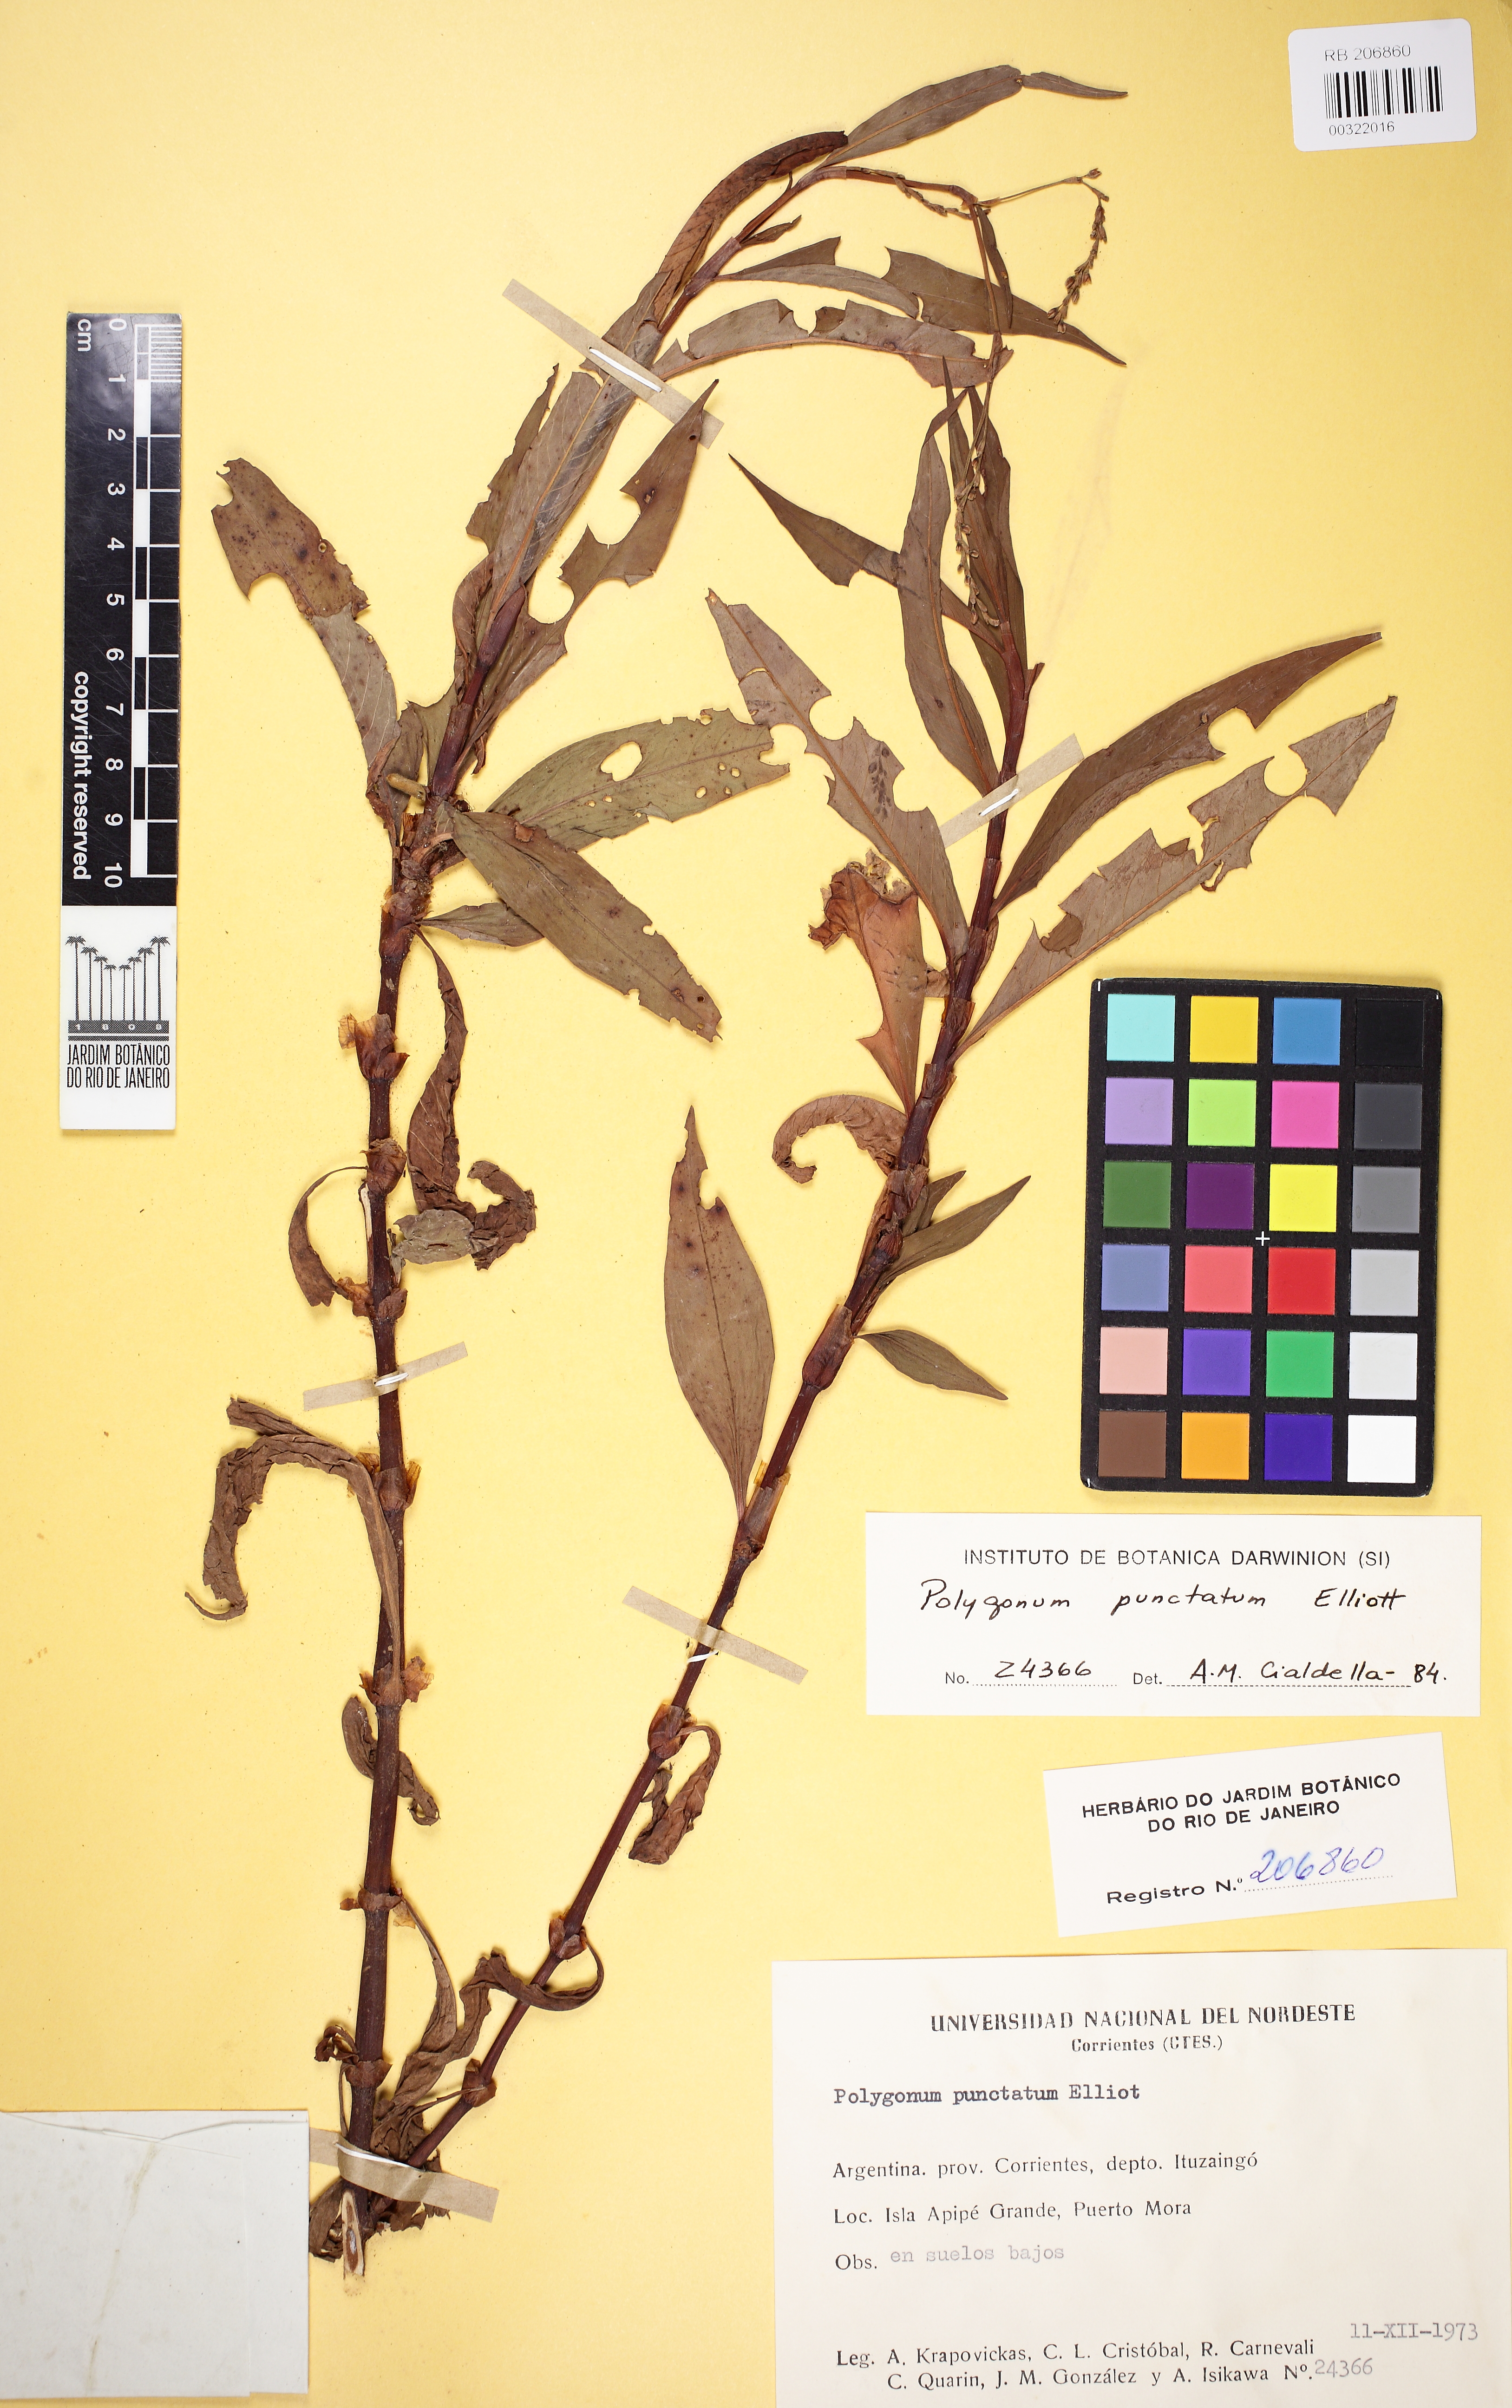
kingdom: Plantae
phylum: Tracheophyta
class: Magnoliopsida
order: Caryophyllales
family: Polygonaceae
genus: Persicaria
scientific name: Persicaria punctata
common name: Dotted smartweed
